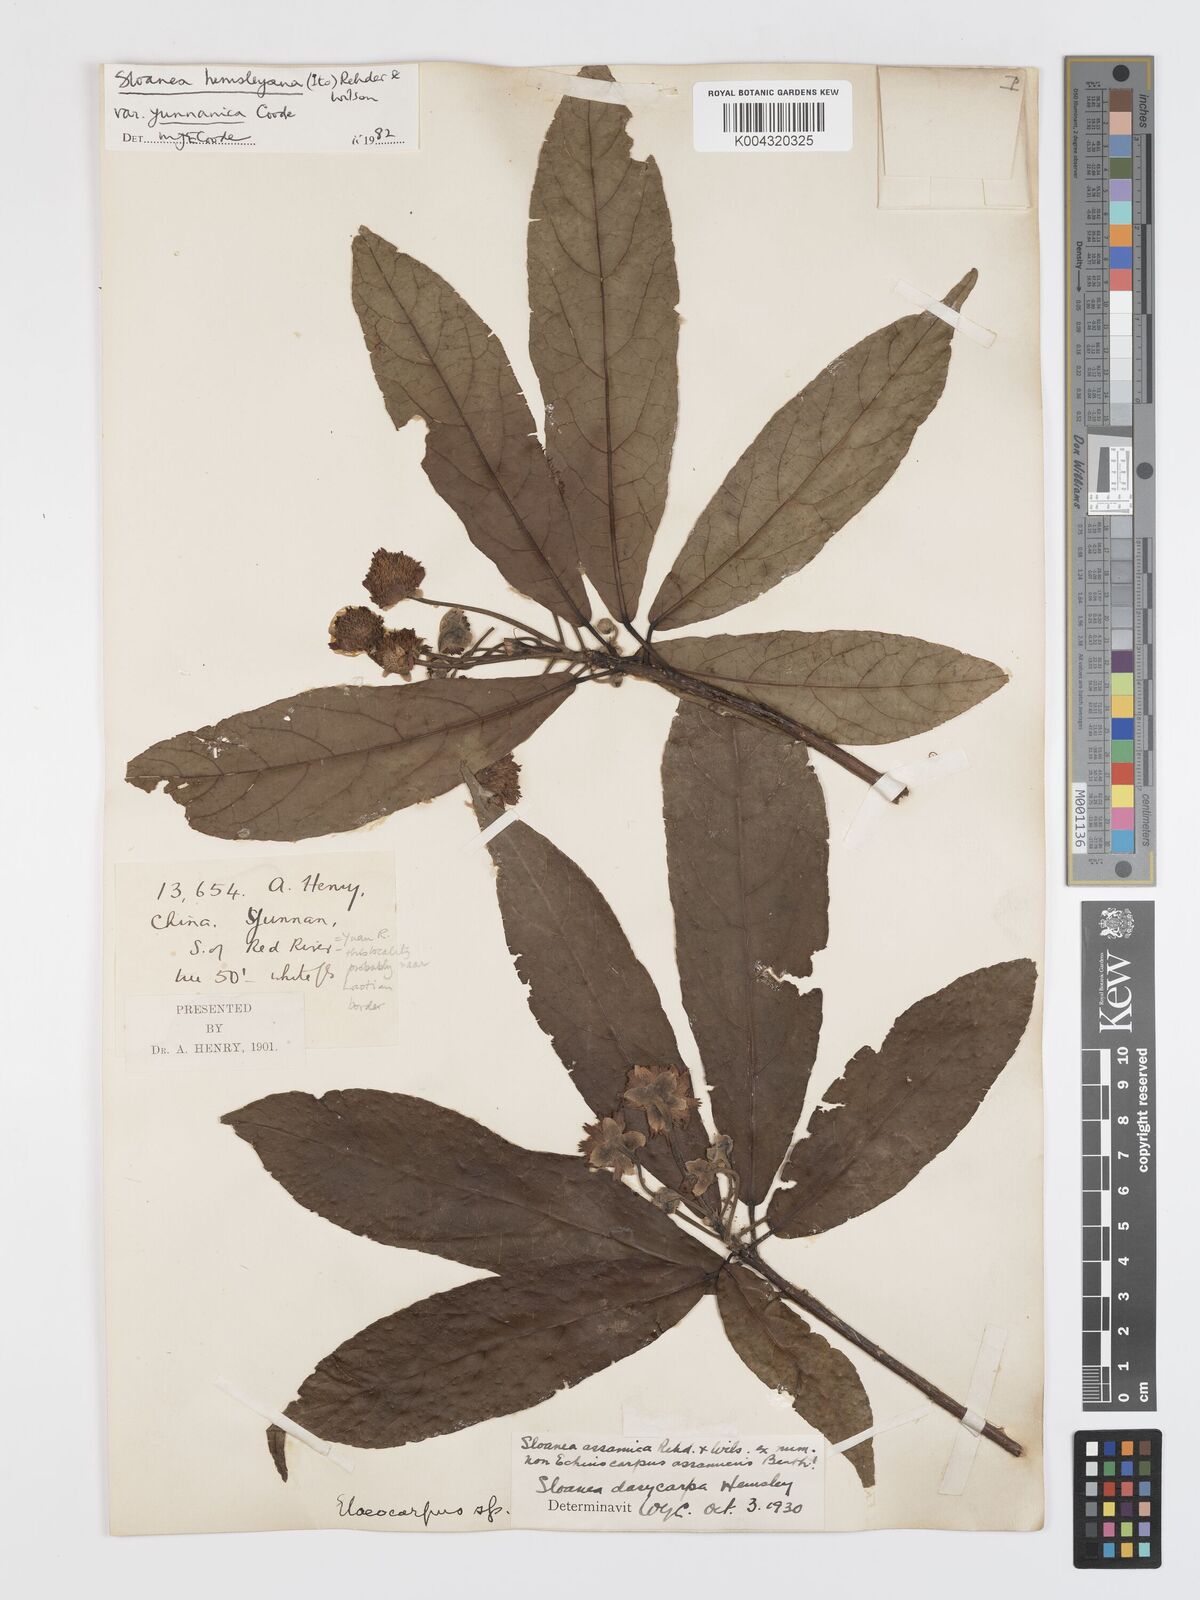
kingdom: Plantae
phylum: Tracheophyta
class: Magnoliopsida
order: Oxalidales
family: Elaeocarpaceae
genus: Sloanea
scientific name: Sloanea hemsleyana
